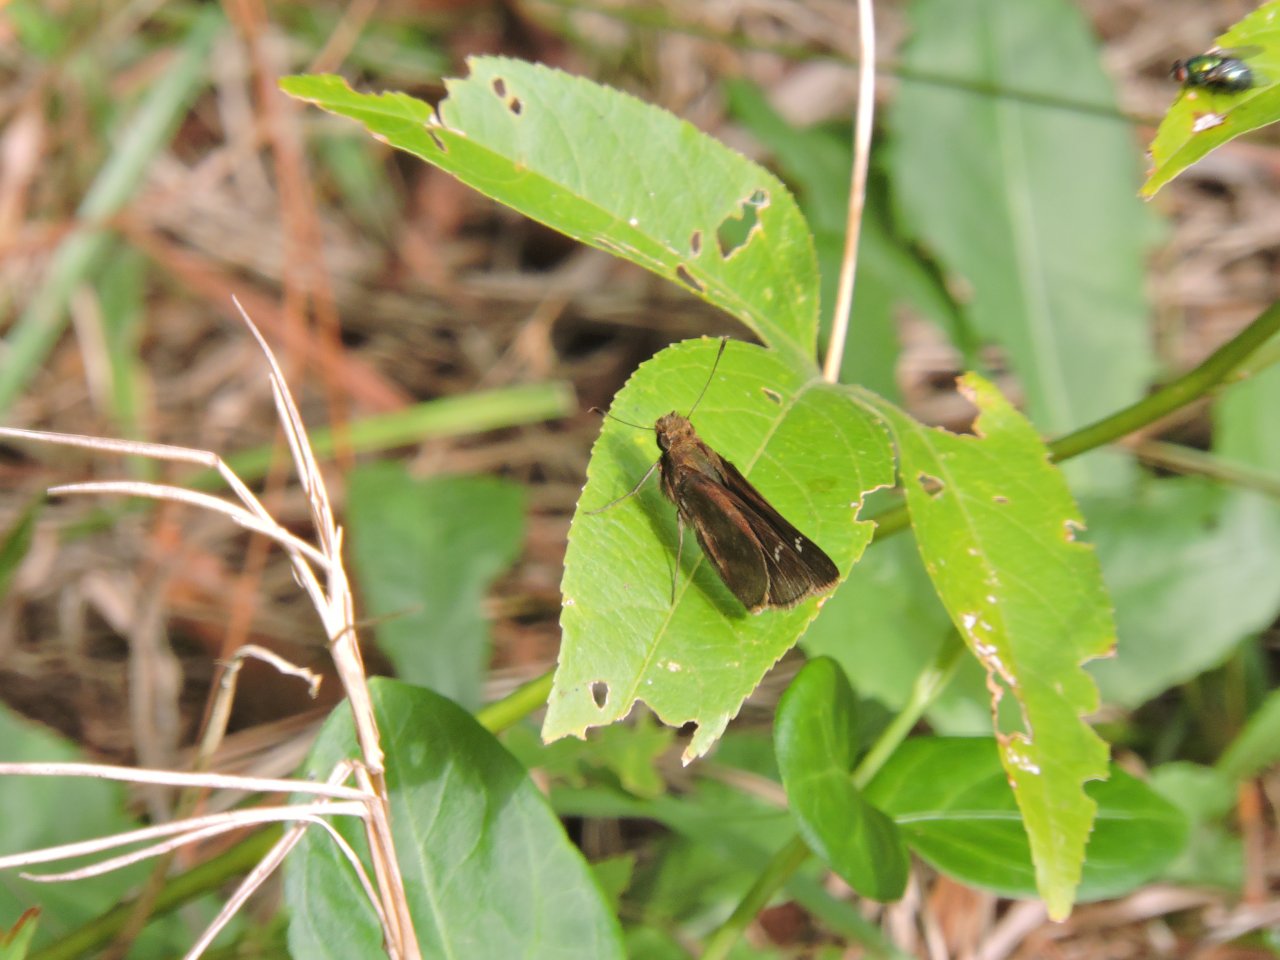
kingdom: Animalia
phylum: Arthropoda
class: Insecta
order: Lepidoptera
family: Hesperiidae
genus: Lerema
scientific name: Lerema accius
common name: Clouded Skipper
